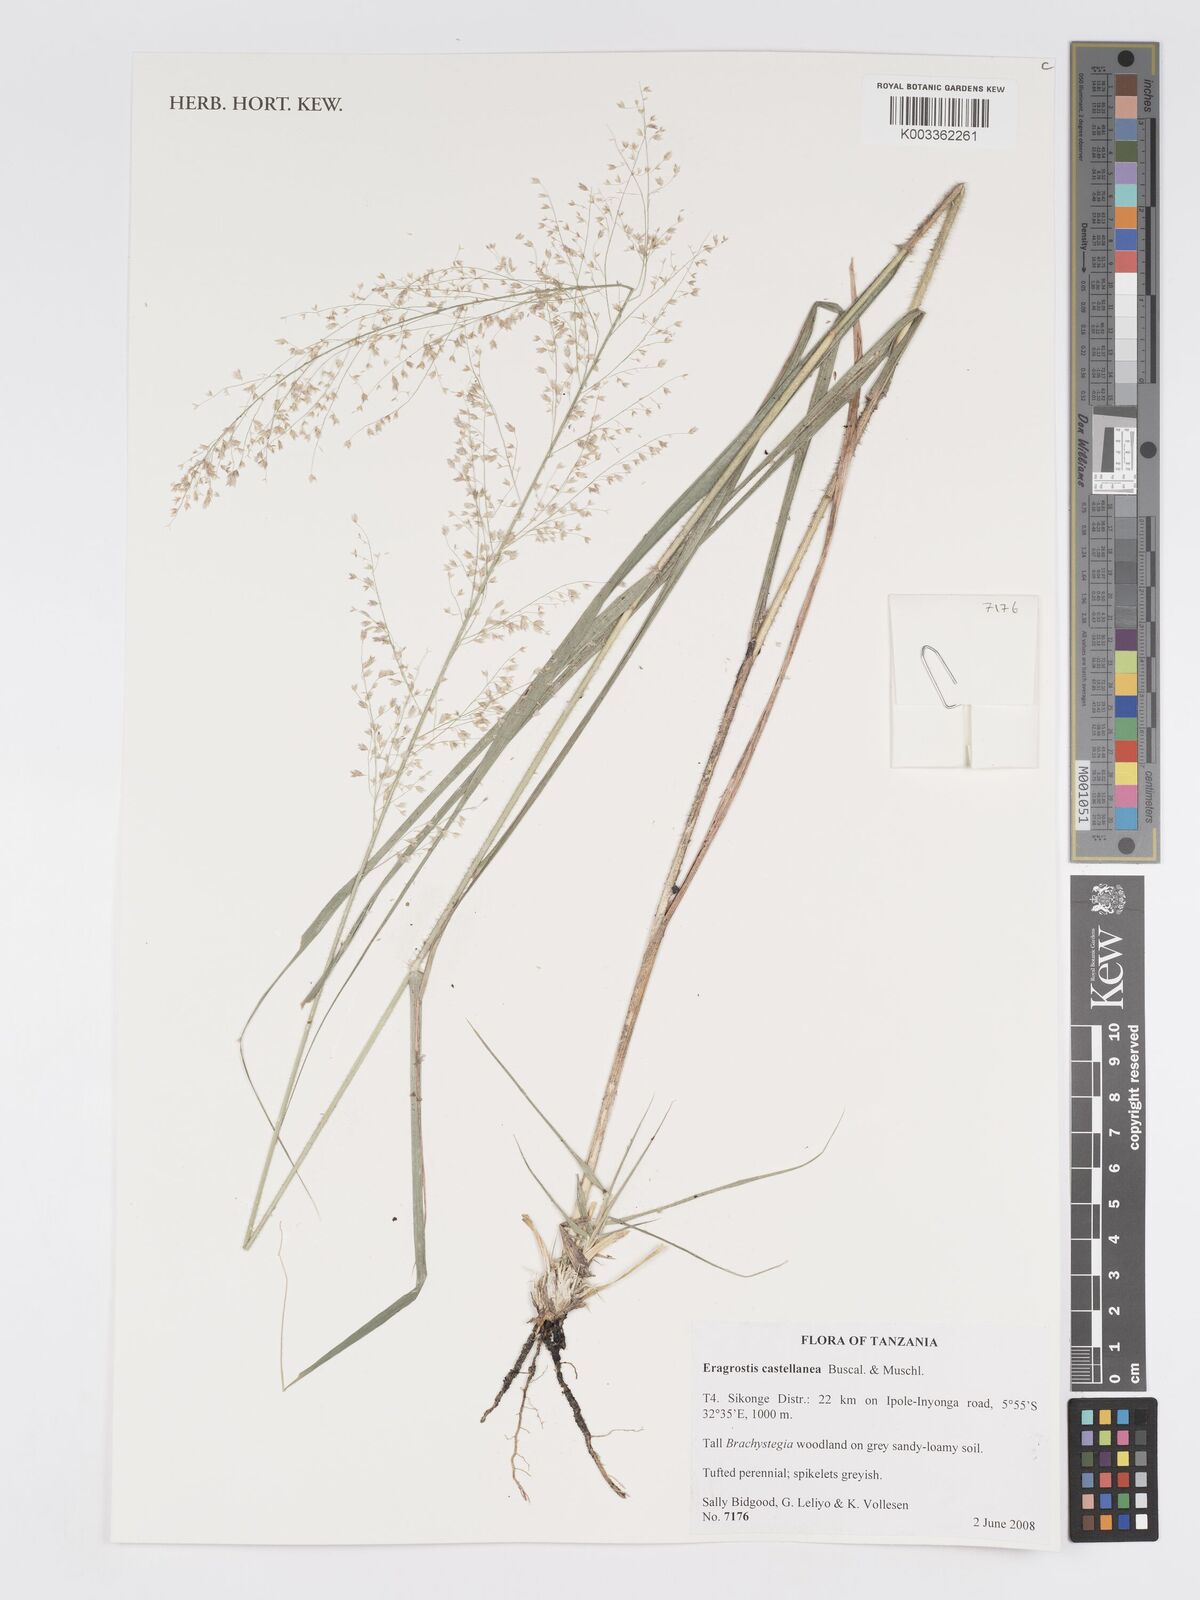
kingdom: Plantae
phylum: Tracheophyta
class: Liliopsida
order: Poales
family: Poaceae
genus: Eragrostis
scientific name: Eragrostis castellaneana
